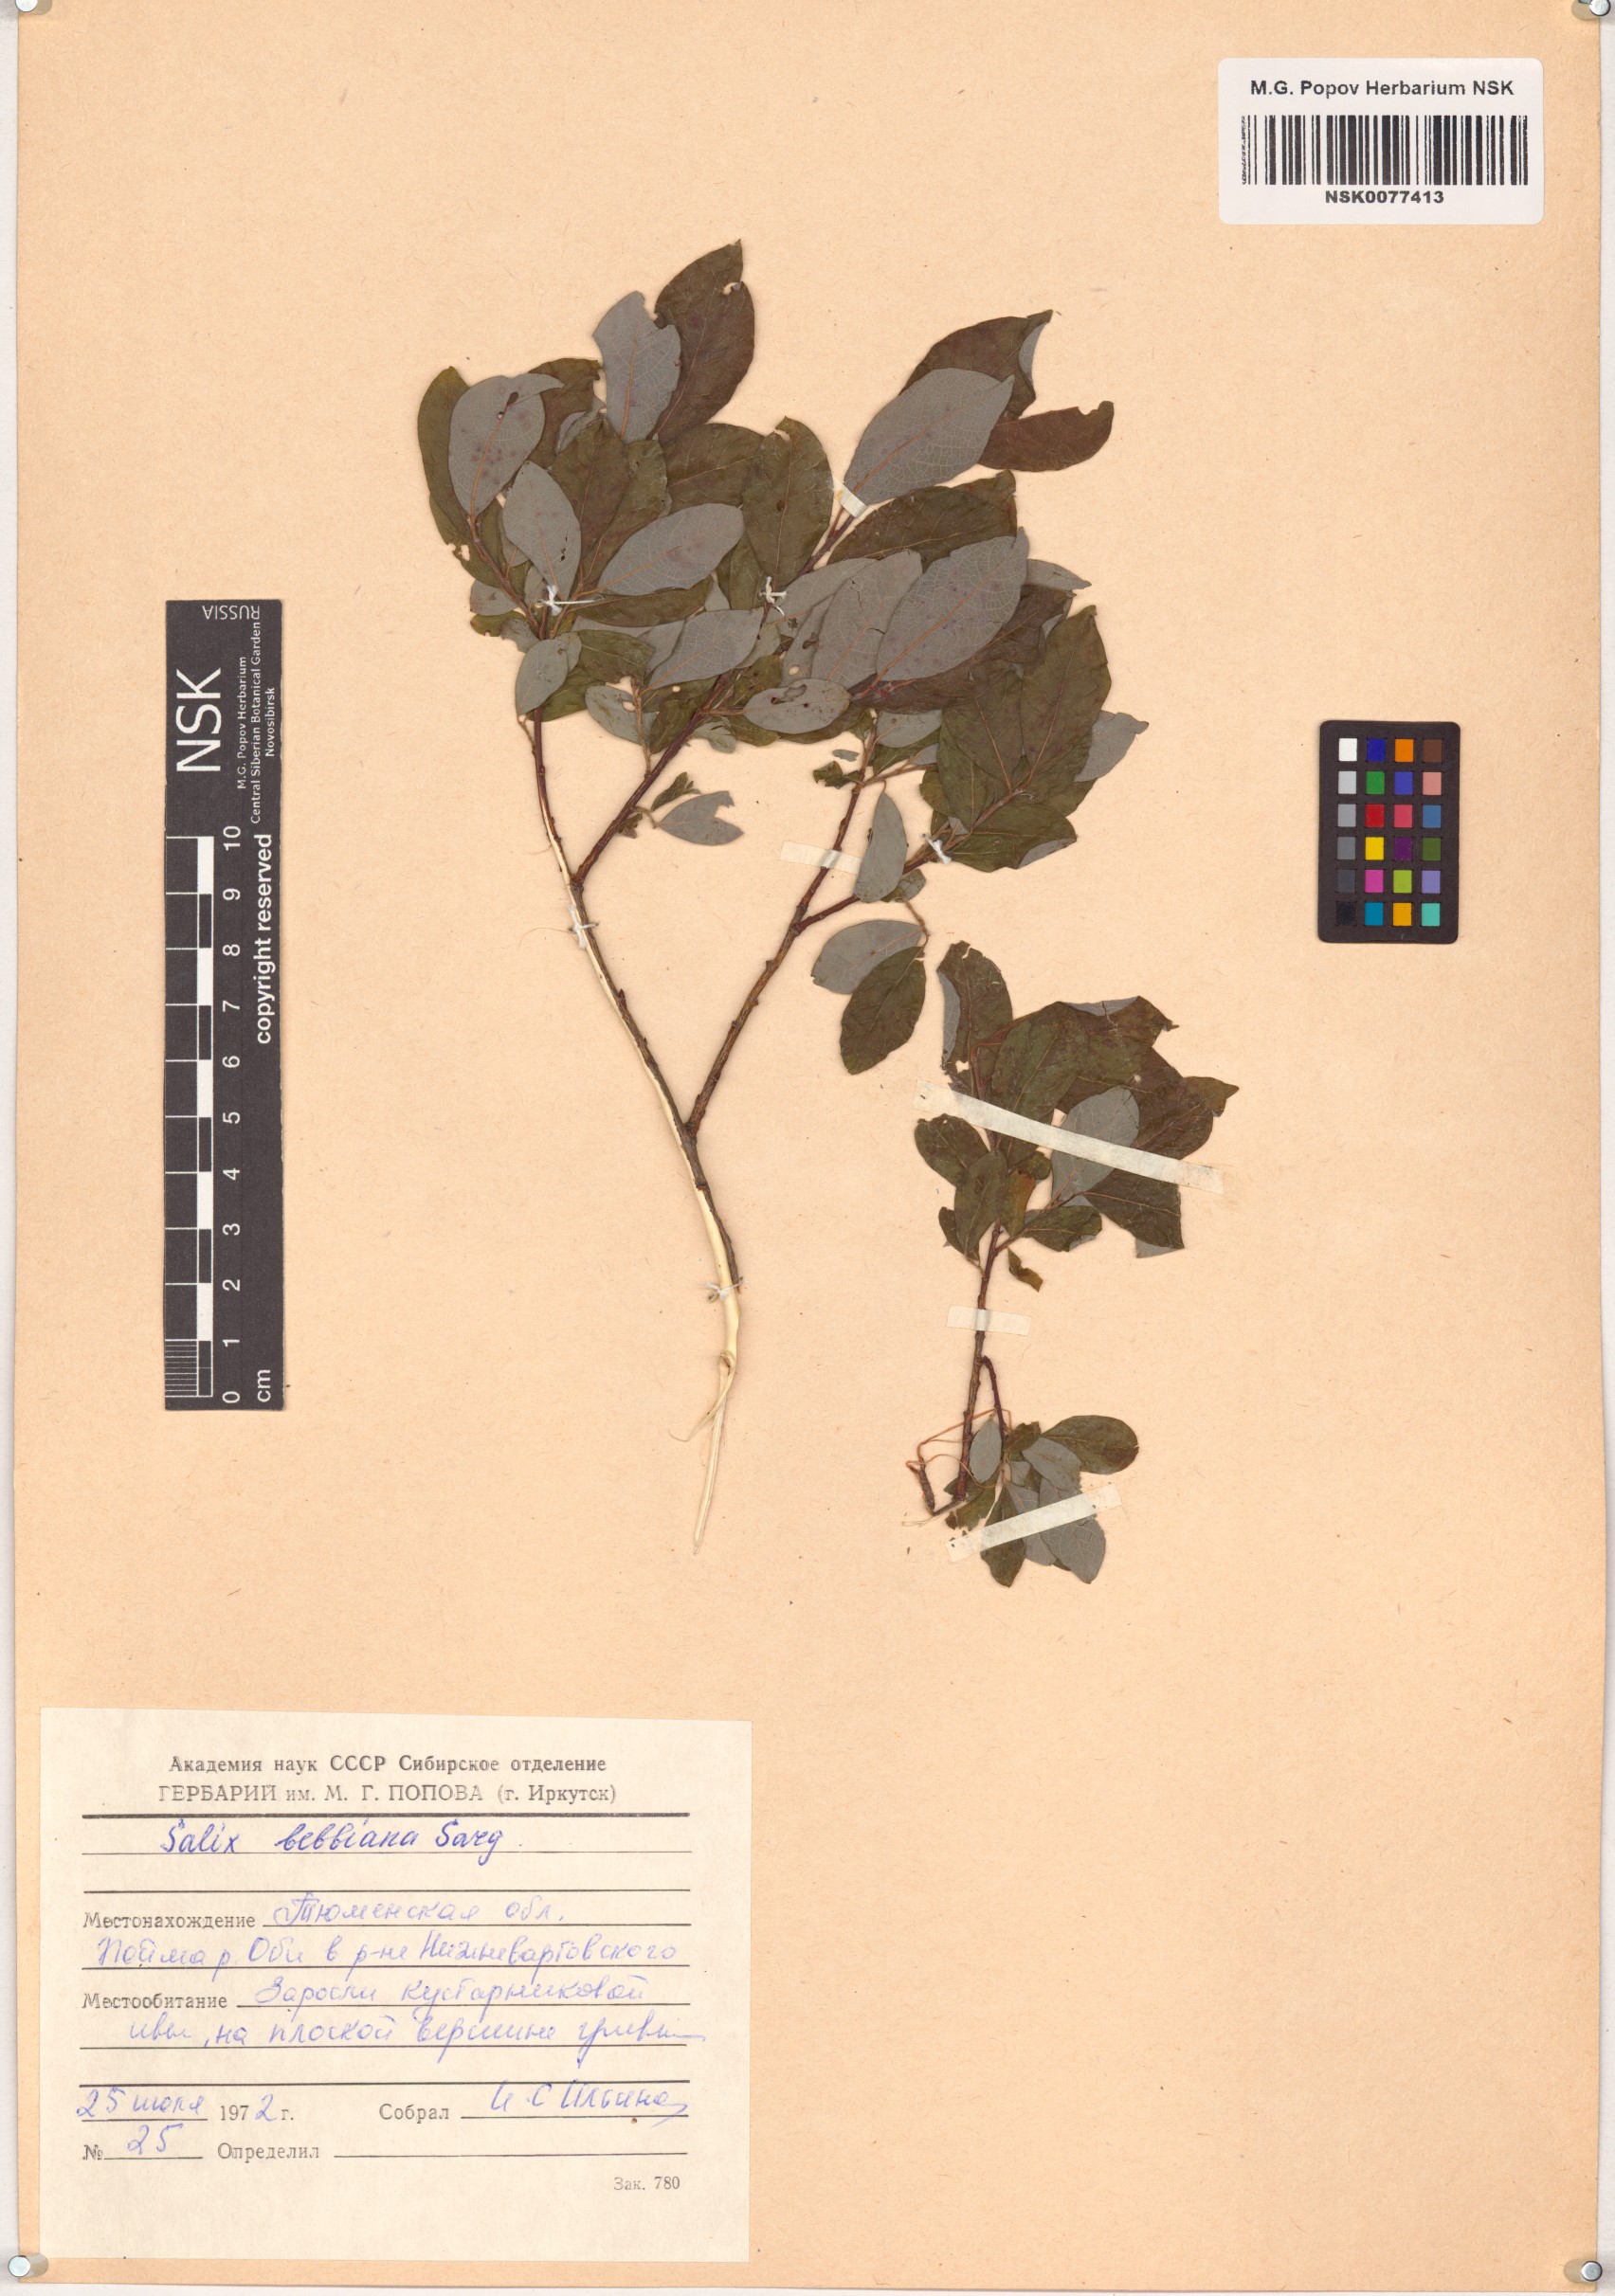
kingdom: Plantae
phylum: Tracheophyta
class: Magnoliopsida
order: Malpighiales
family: Salicaceae
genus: Salix
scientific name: Salix bebbiana
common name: Bebb's willow
